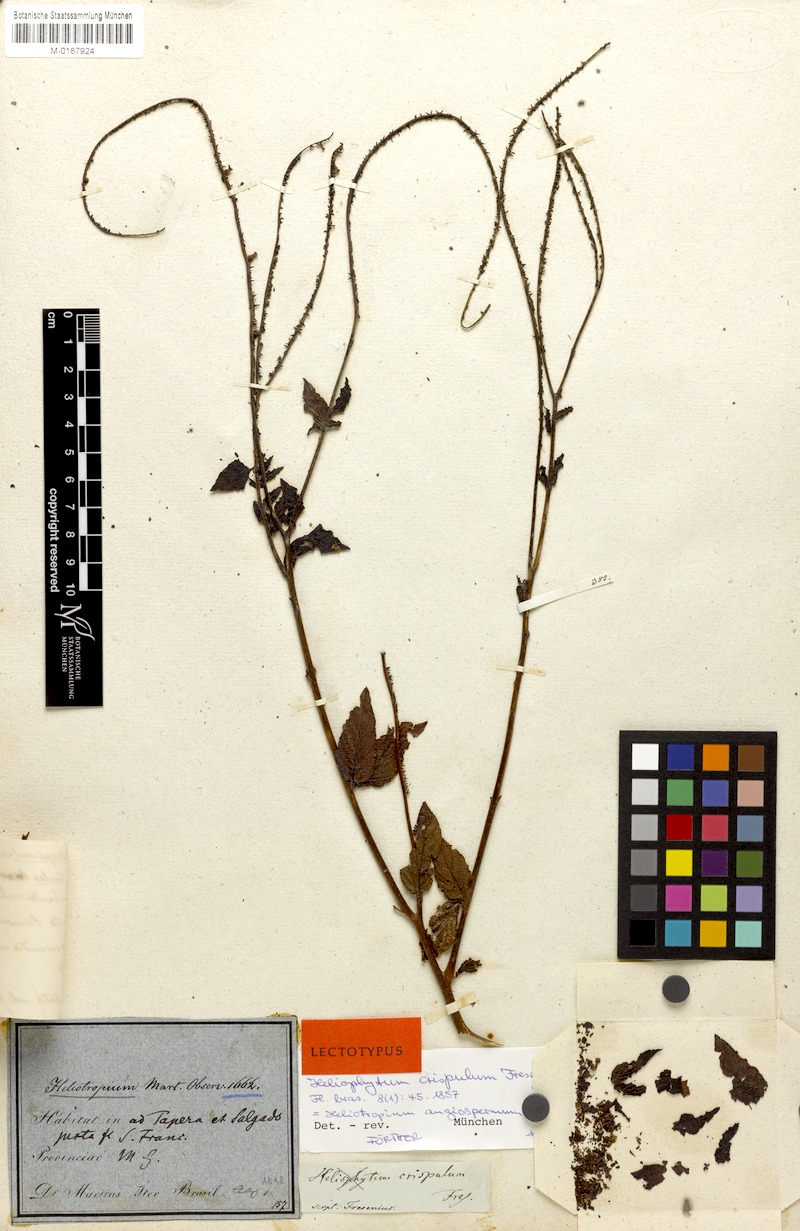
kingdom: Plantae
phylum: Tracheophyta
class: Magnoliopsida
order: Boraginales
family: Heliotropiaceae
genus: Heliotropium
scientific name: Heliotropium angiospermum
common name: Eye bright
